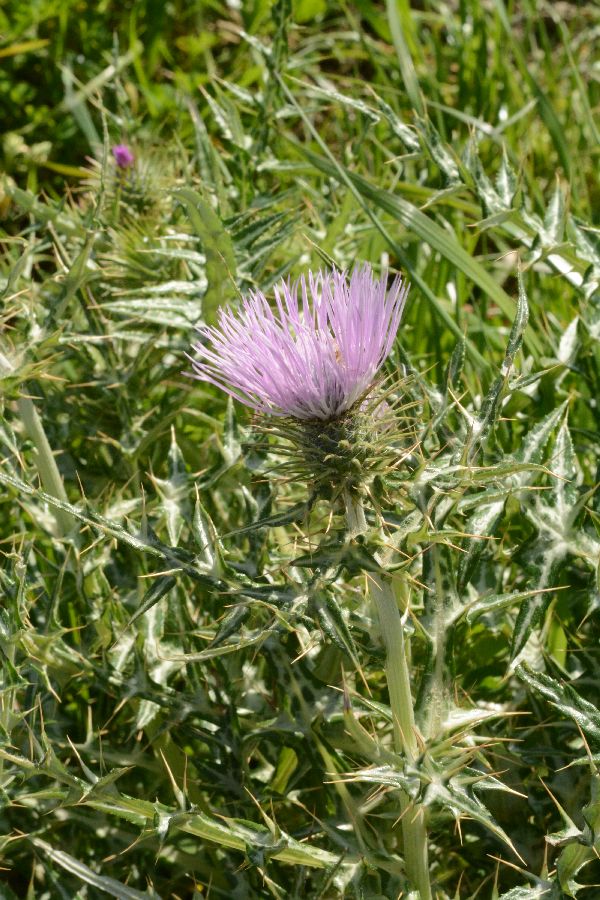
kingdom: Plantae
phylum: Tracheophyta
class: Magnoliopsida
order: Asterales
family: Asteraceae
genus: Galactites
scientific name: Galactites tomentosa
